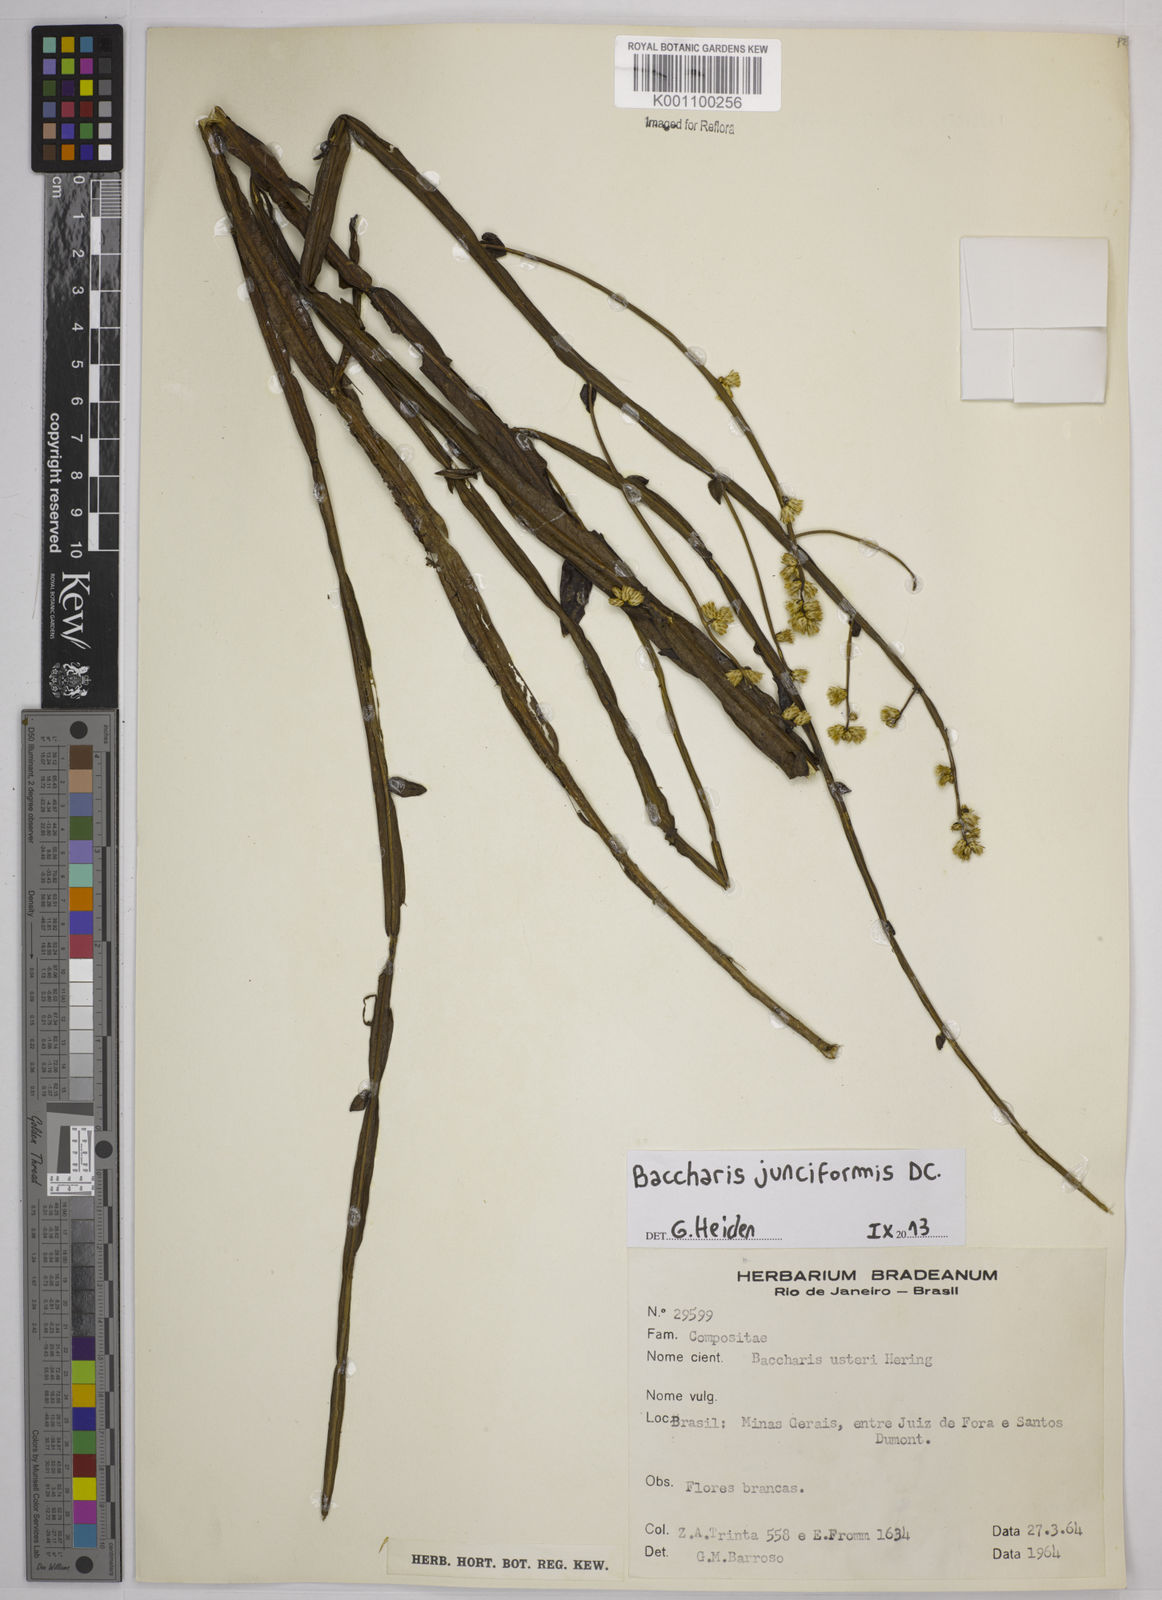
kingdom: Plantae
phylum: Tracheophyta
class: Magnoliopsida
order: Asterales
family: Asteraceae
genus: Baccharis
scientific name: Baccharis junciformis
